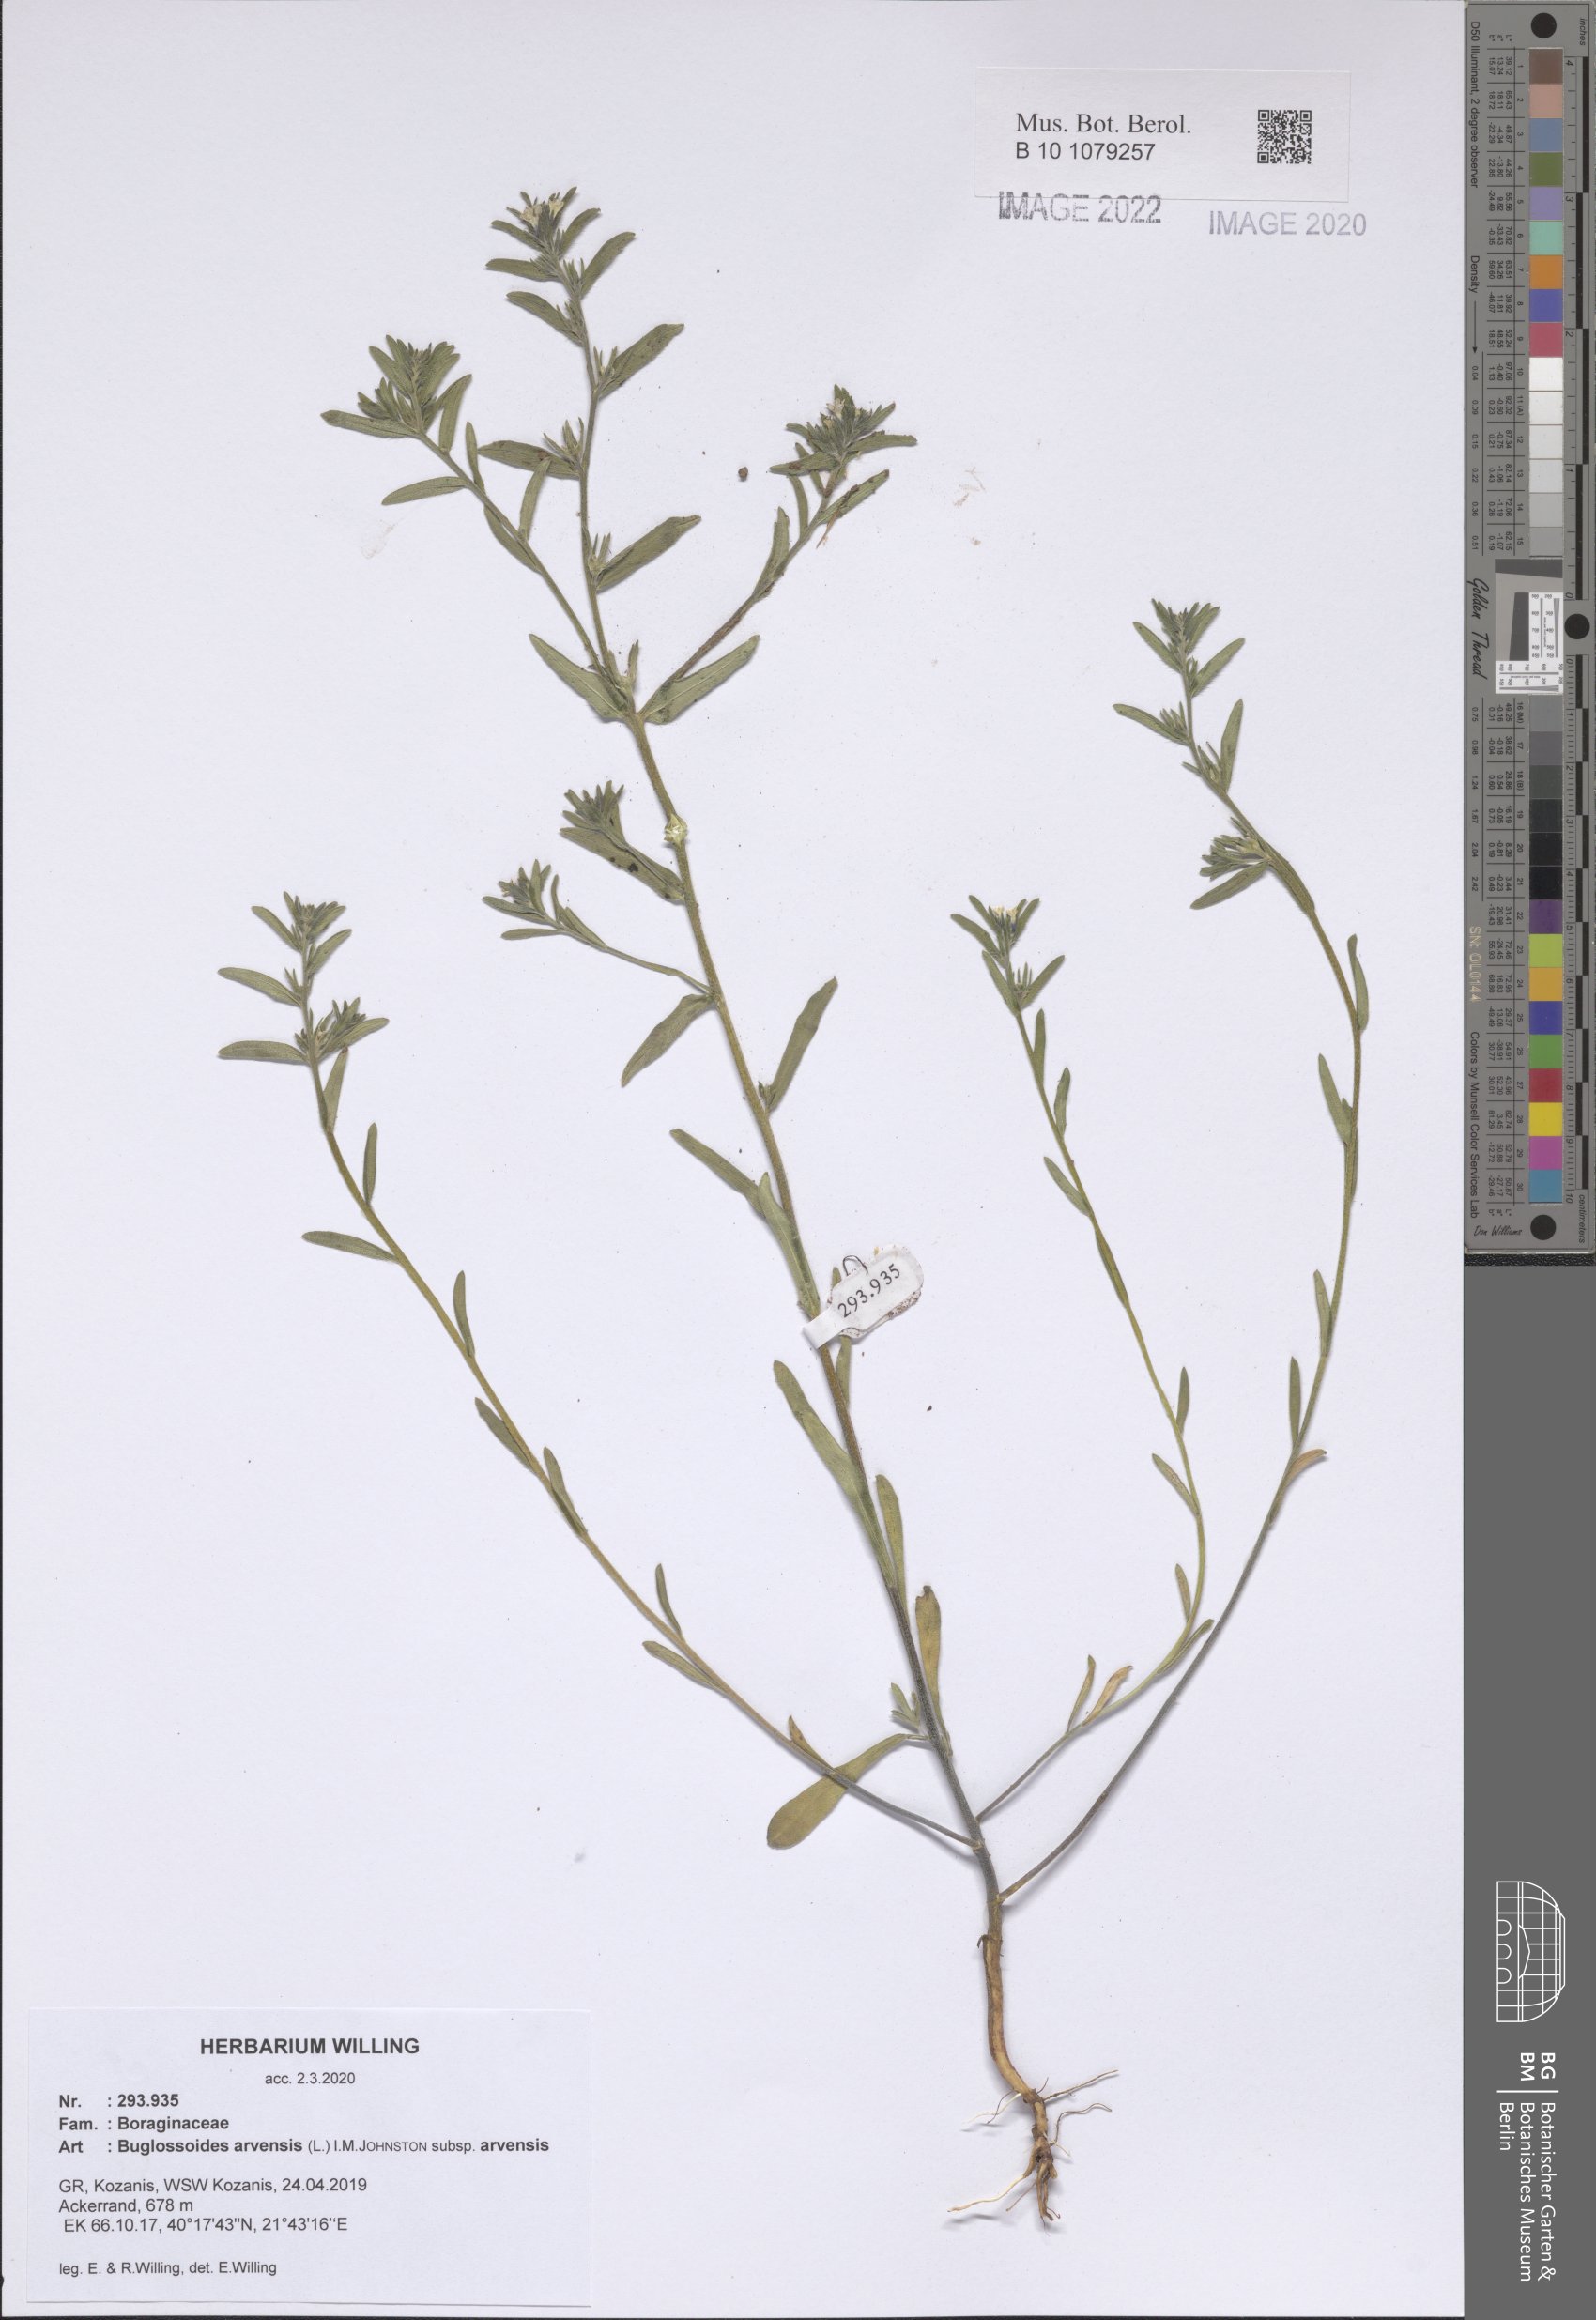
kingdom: Plantae
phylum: Tracheophyta
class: Magnoliopsida
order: Boraginales
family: Boraginaceae
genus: Buglossoides
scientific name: Buglossoides arvensis
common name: Corn gromwell
